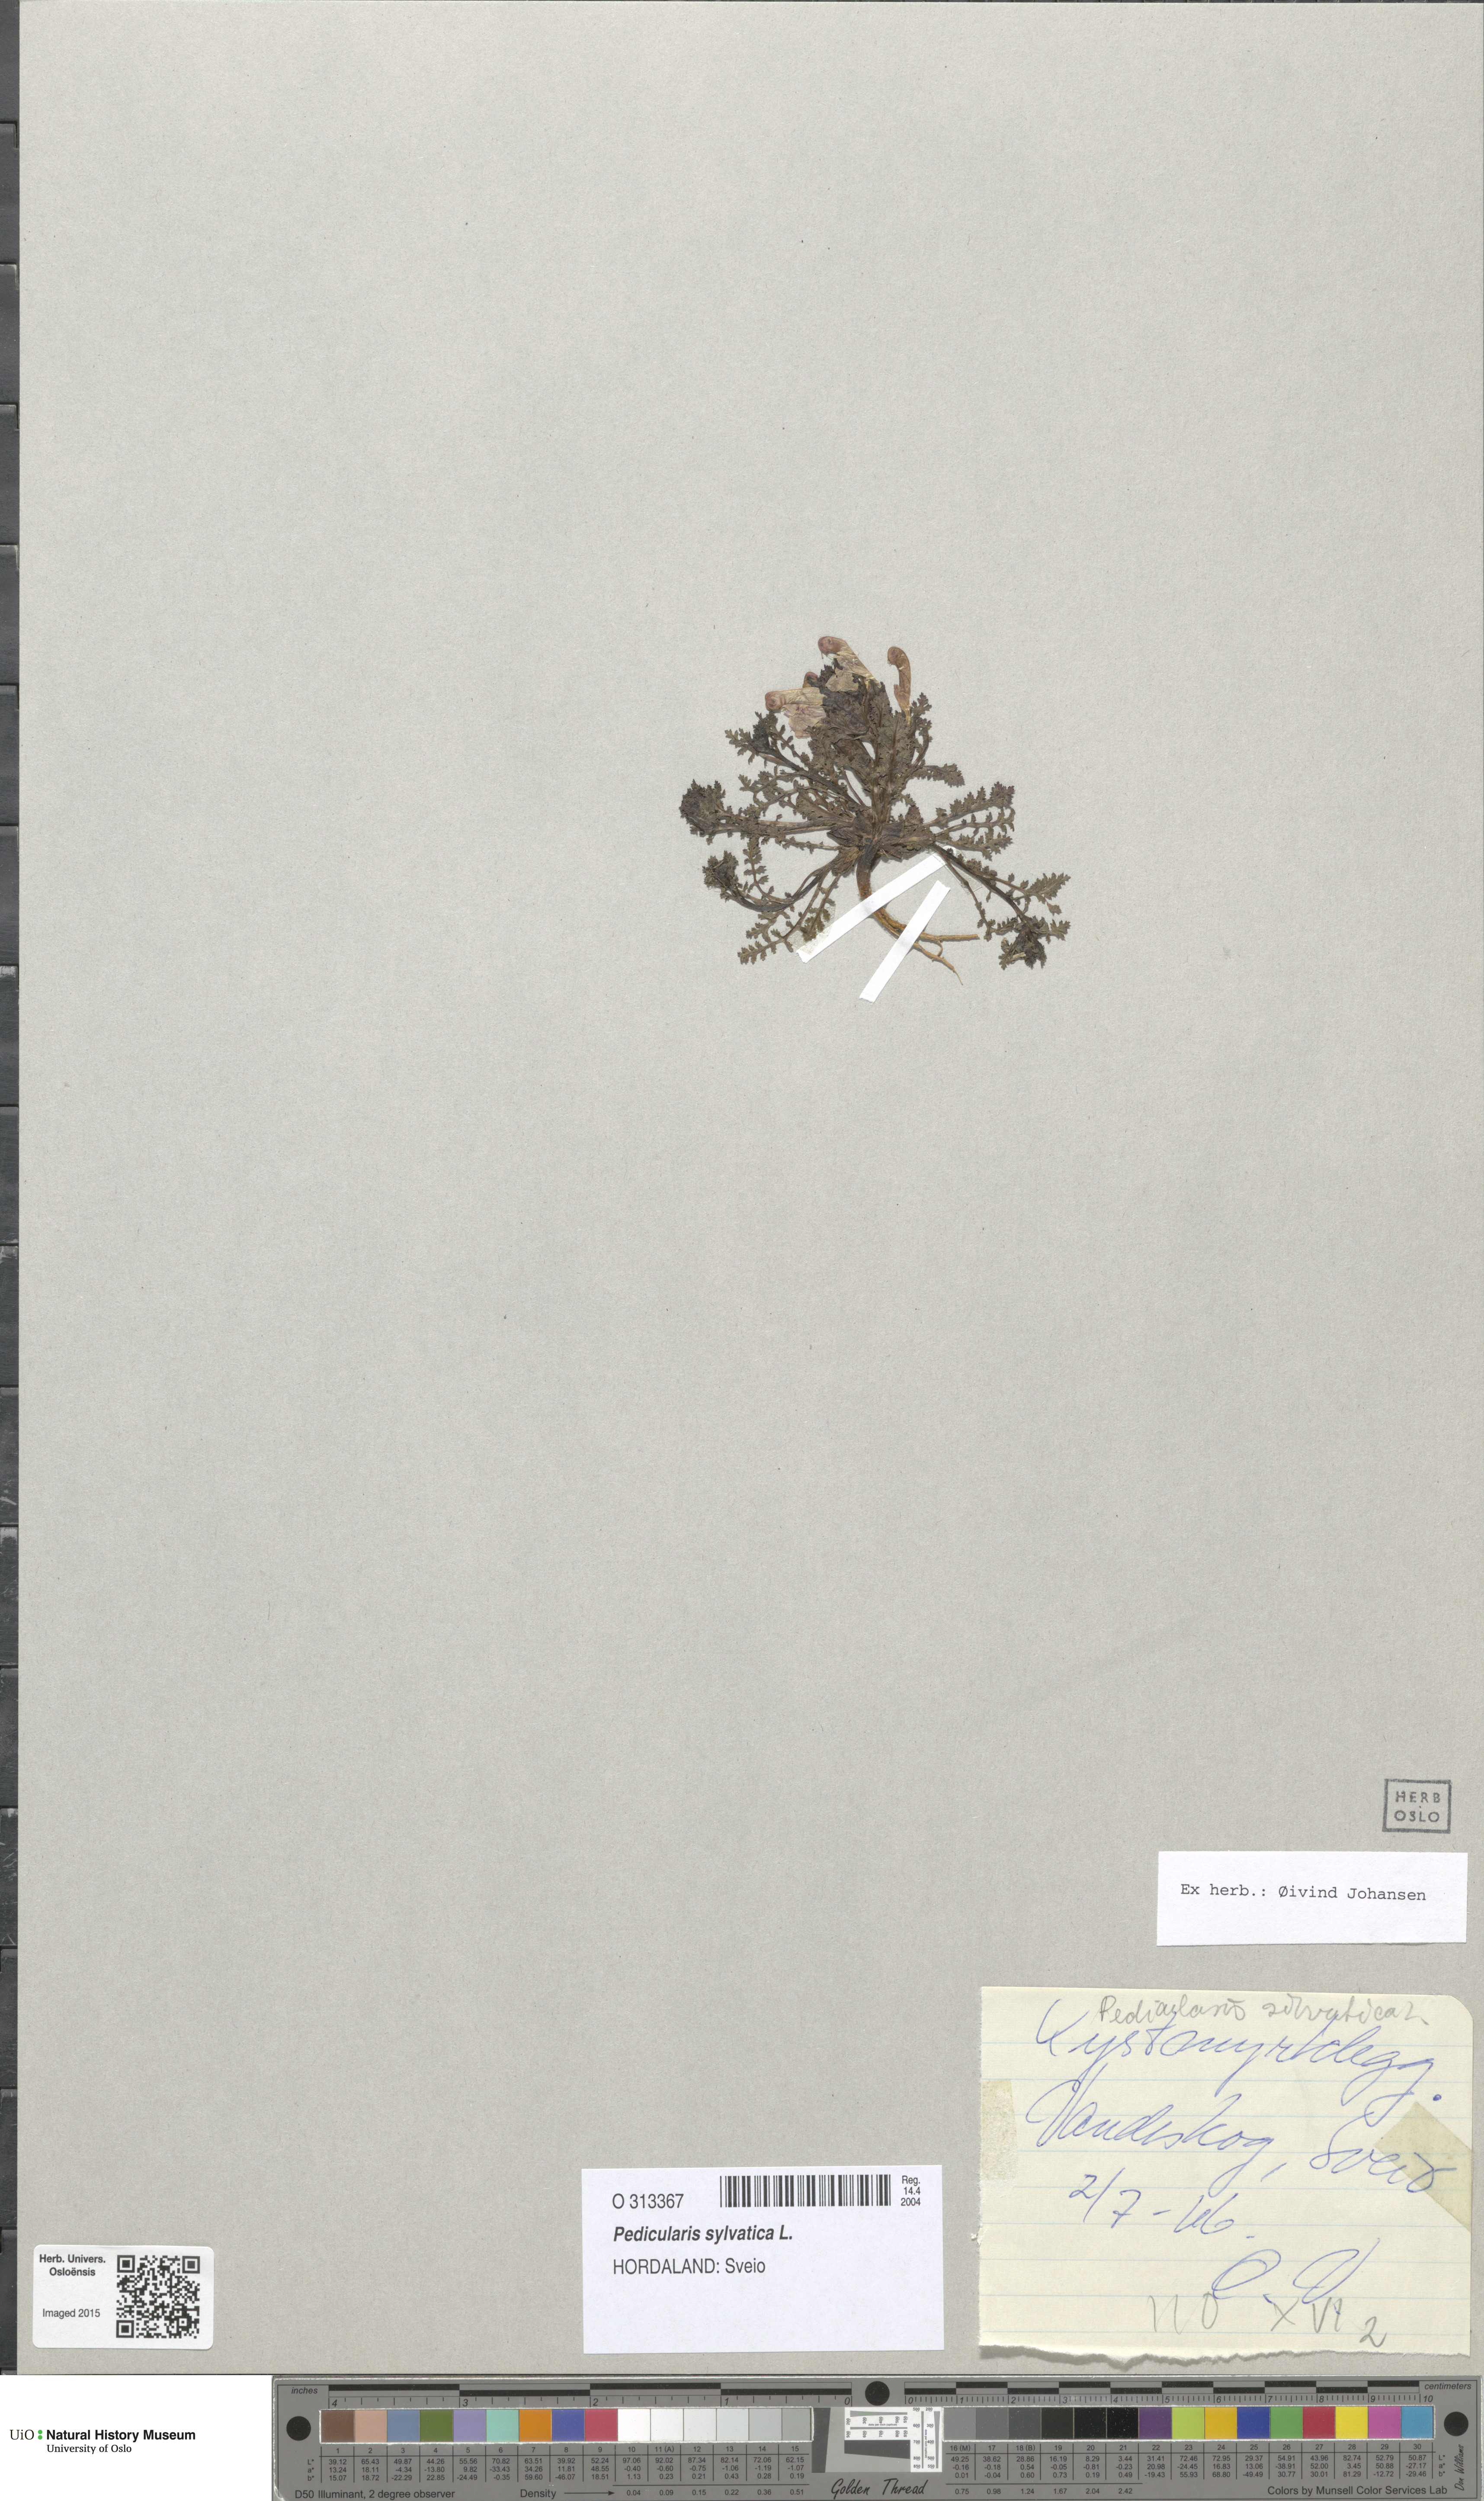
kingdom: Plantae
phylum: Tracheophyta
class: Magnoliopsida
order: Lamiales
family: Orobanchaceae
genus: Pedicularis
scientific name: Pedicularis sylvatica
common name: Lousewort
